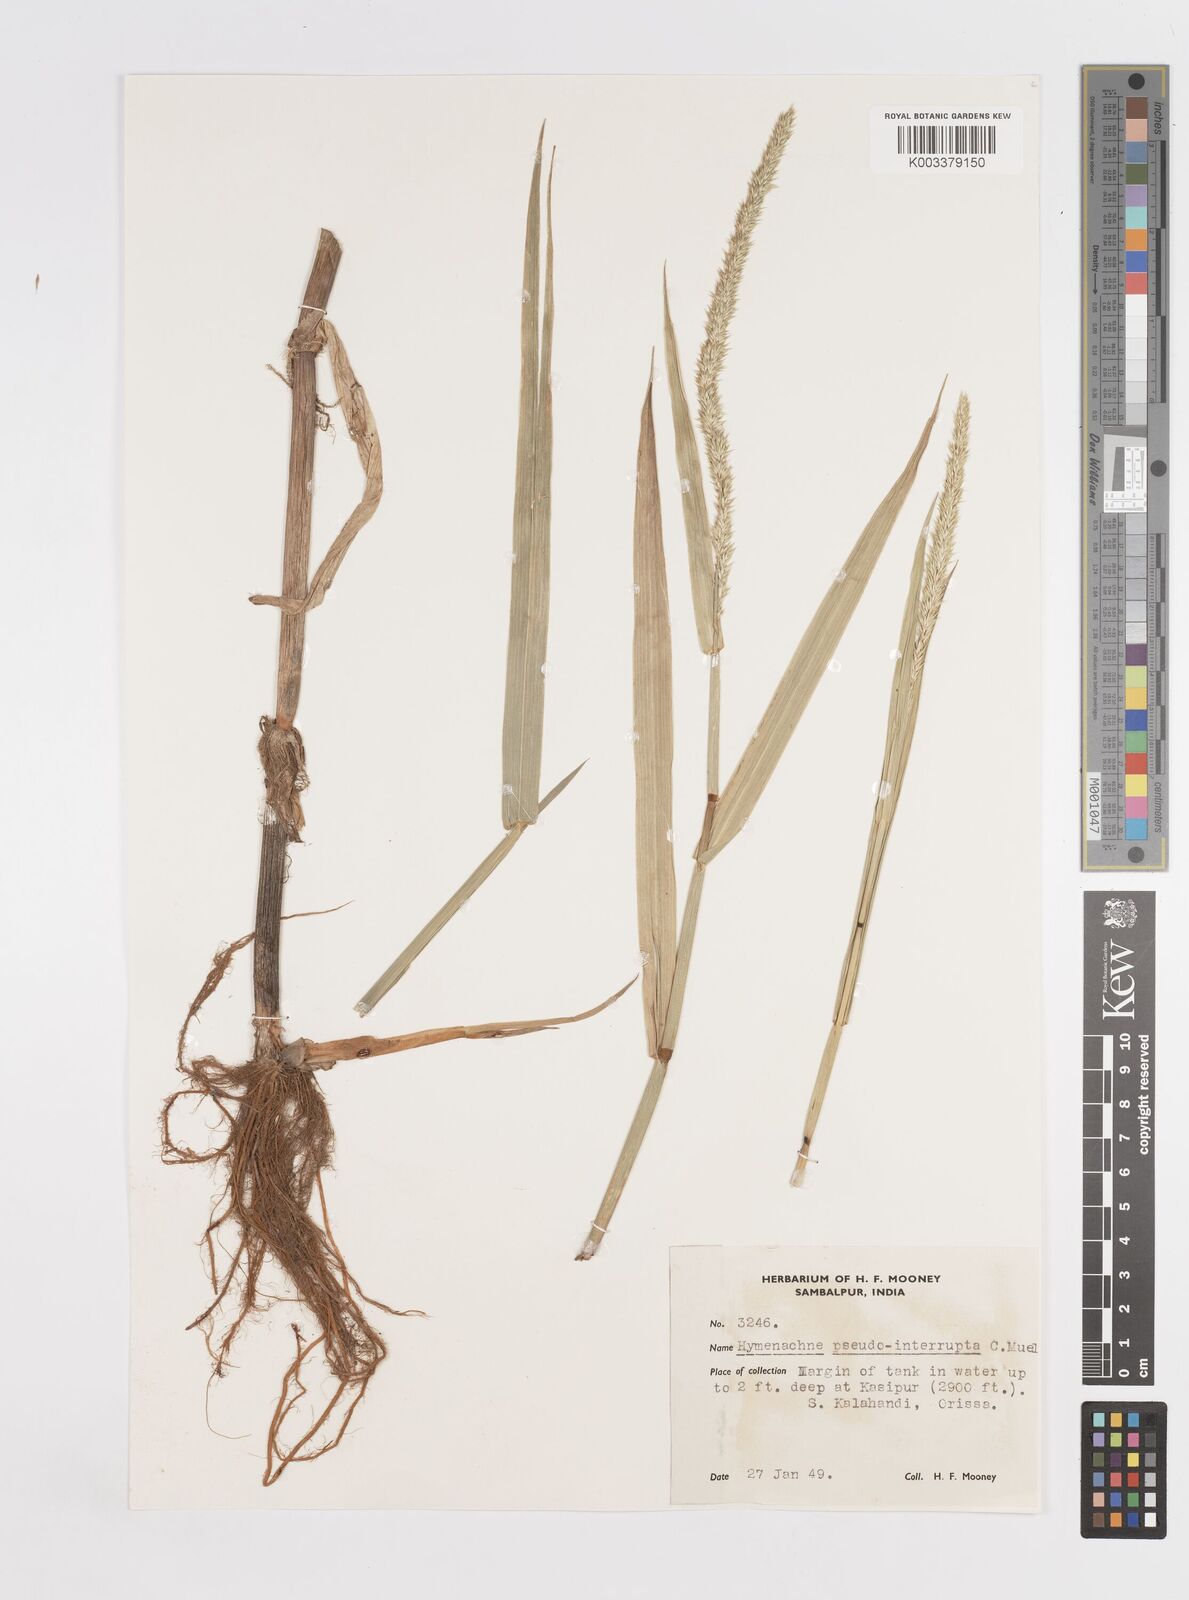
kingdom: Plantae
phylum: Tracheophyta
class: Liliopsida
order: Poales
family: Poaceae
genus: Hymenachne
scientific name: Hymenachne amplexicaulis
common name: Olive hymenachne
